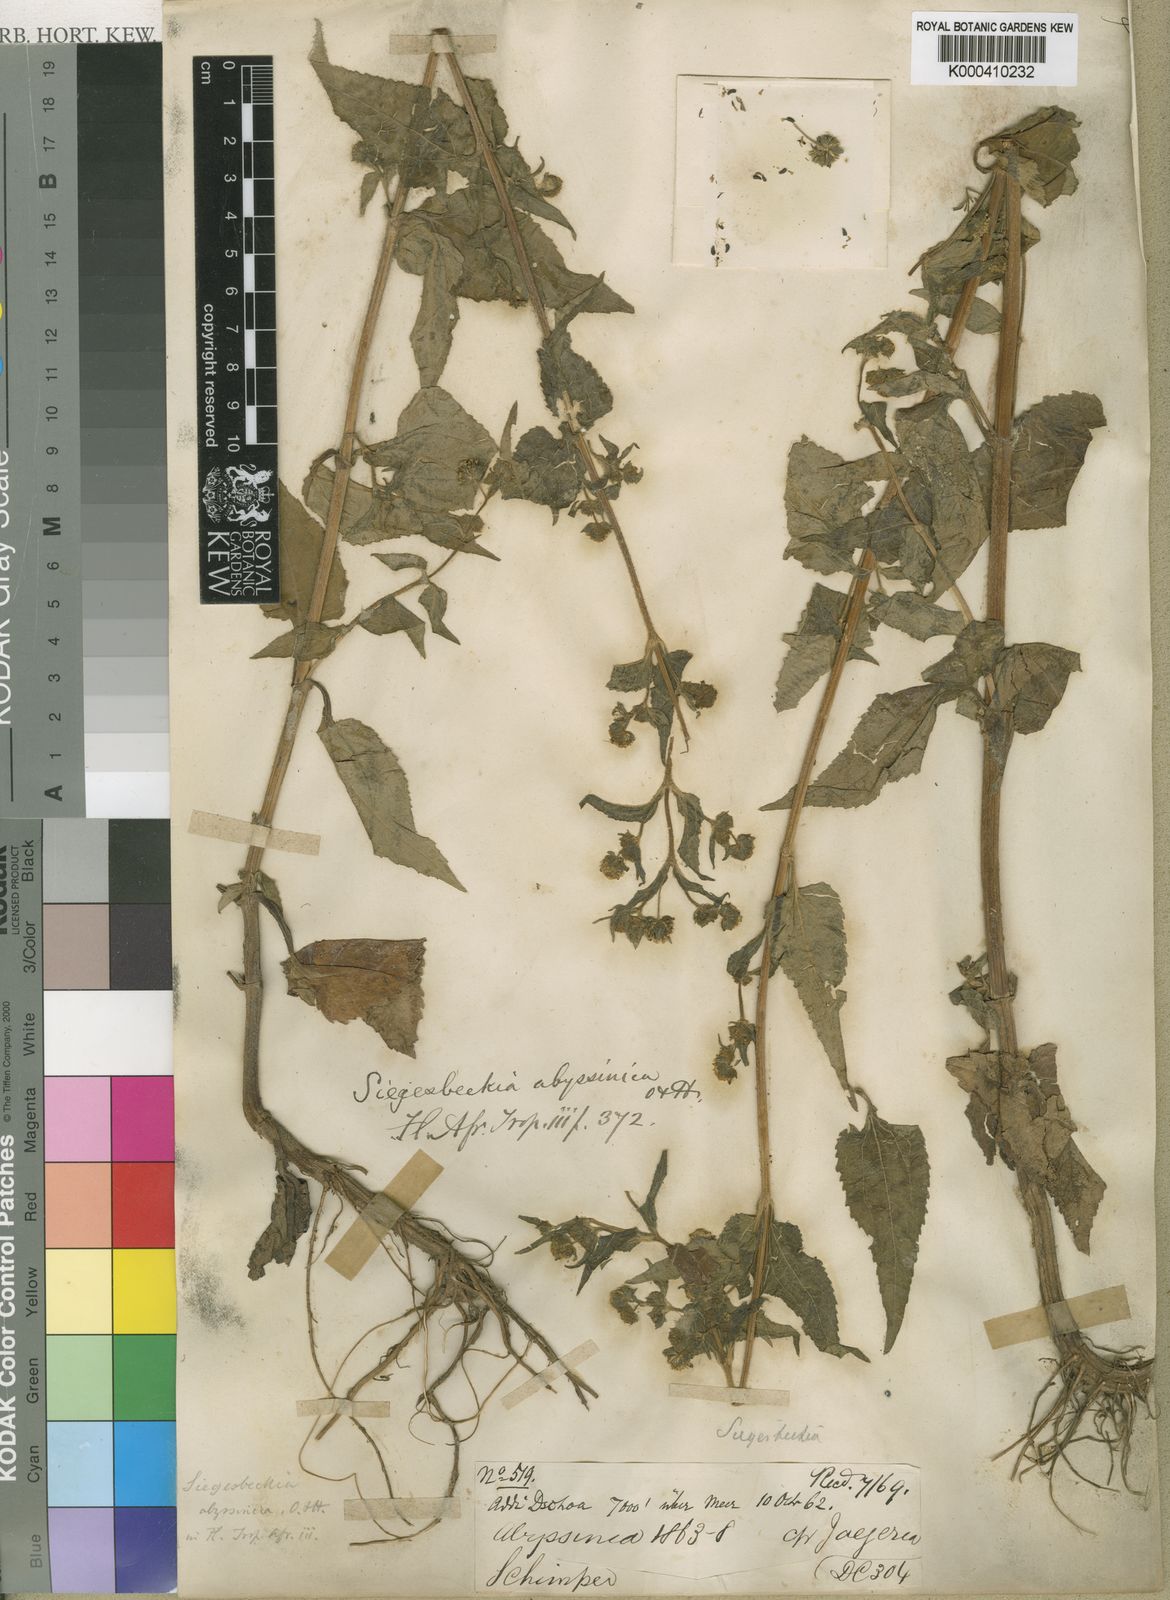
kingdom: Plantae
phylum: Tracheophyta
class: Magnoliopsida
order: Asterales
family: Asteraceae
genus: Micractis
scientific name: Micractis bojeri
